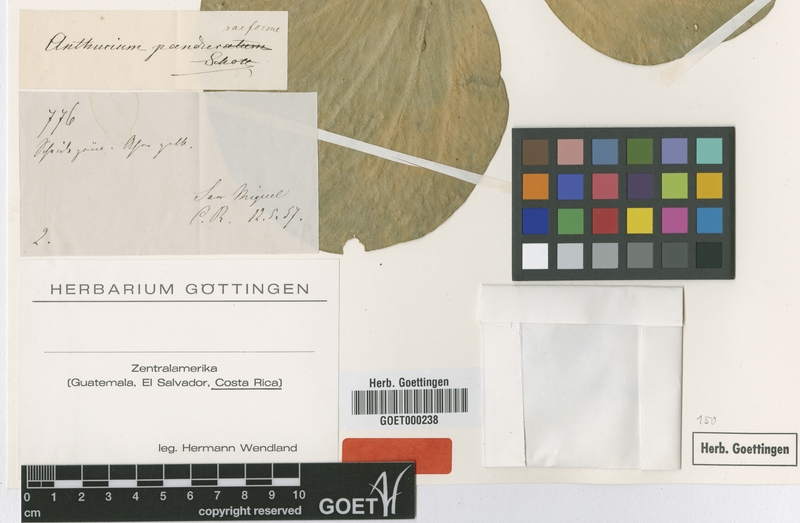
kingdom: Plantae
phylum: Tracheophyta
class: Liliopsida
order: Alismatales
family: Araceae
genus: Anthurium
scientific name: Anthurium panduriforme
